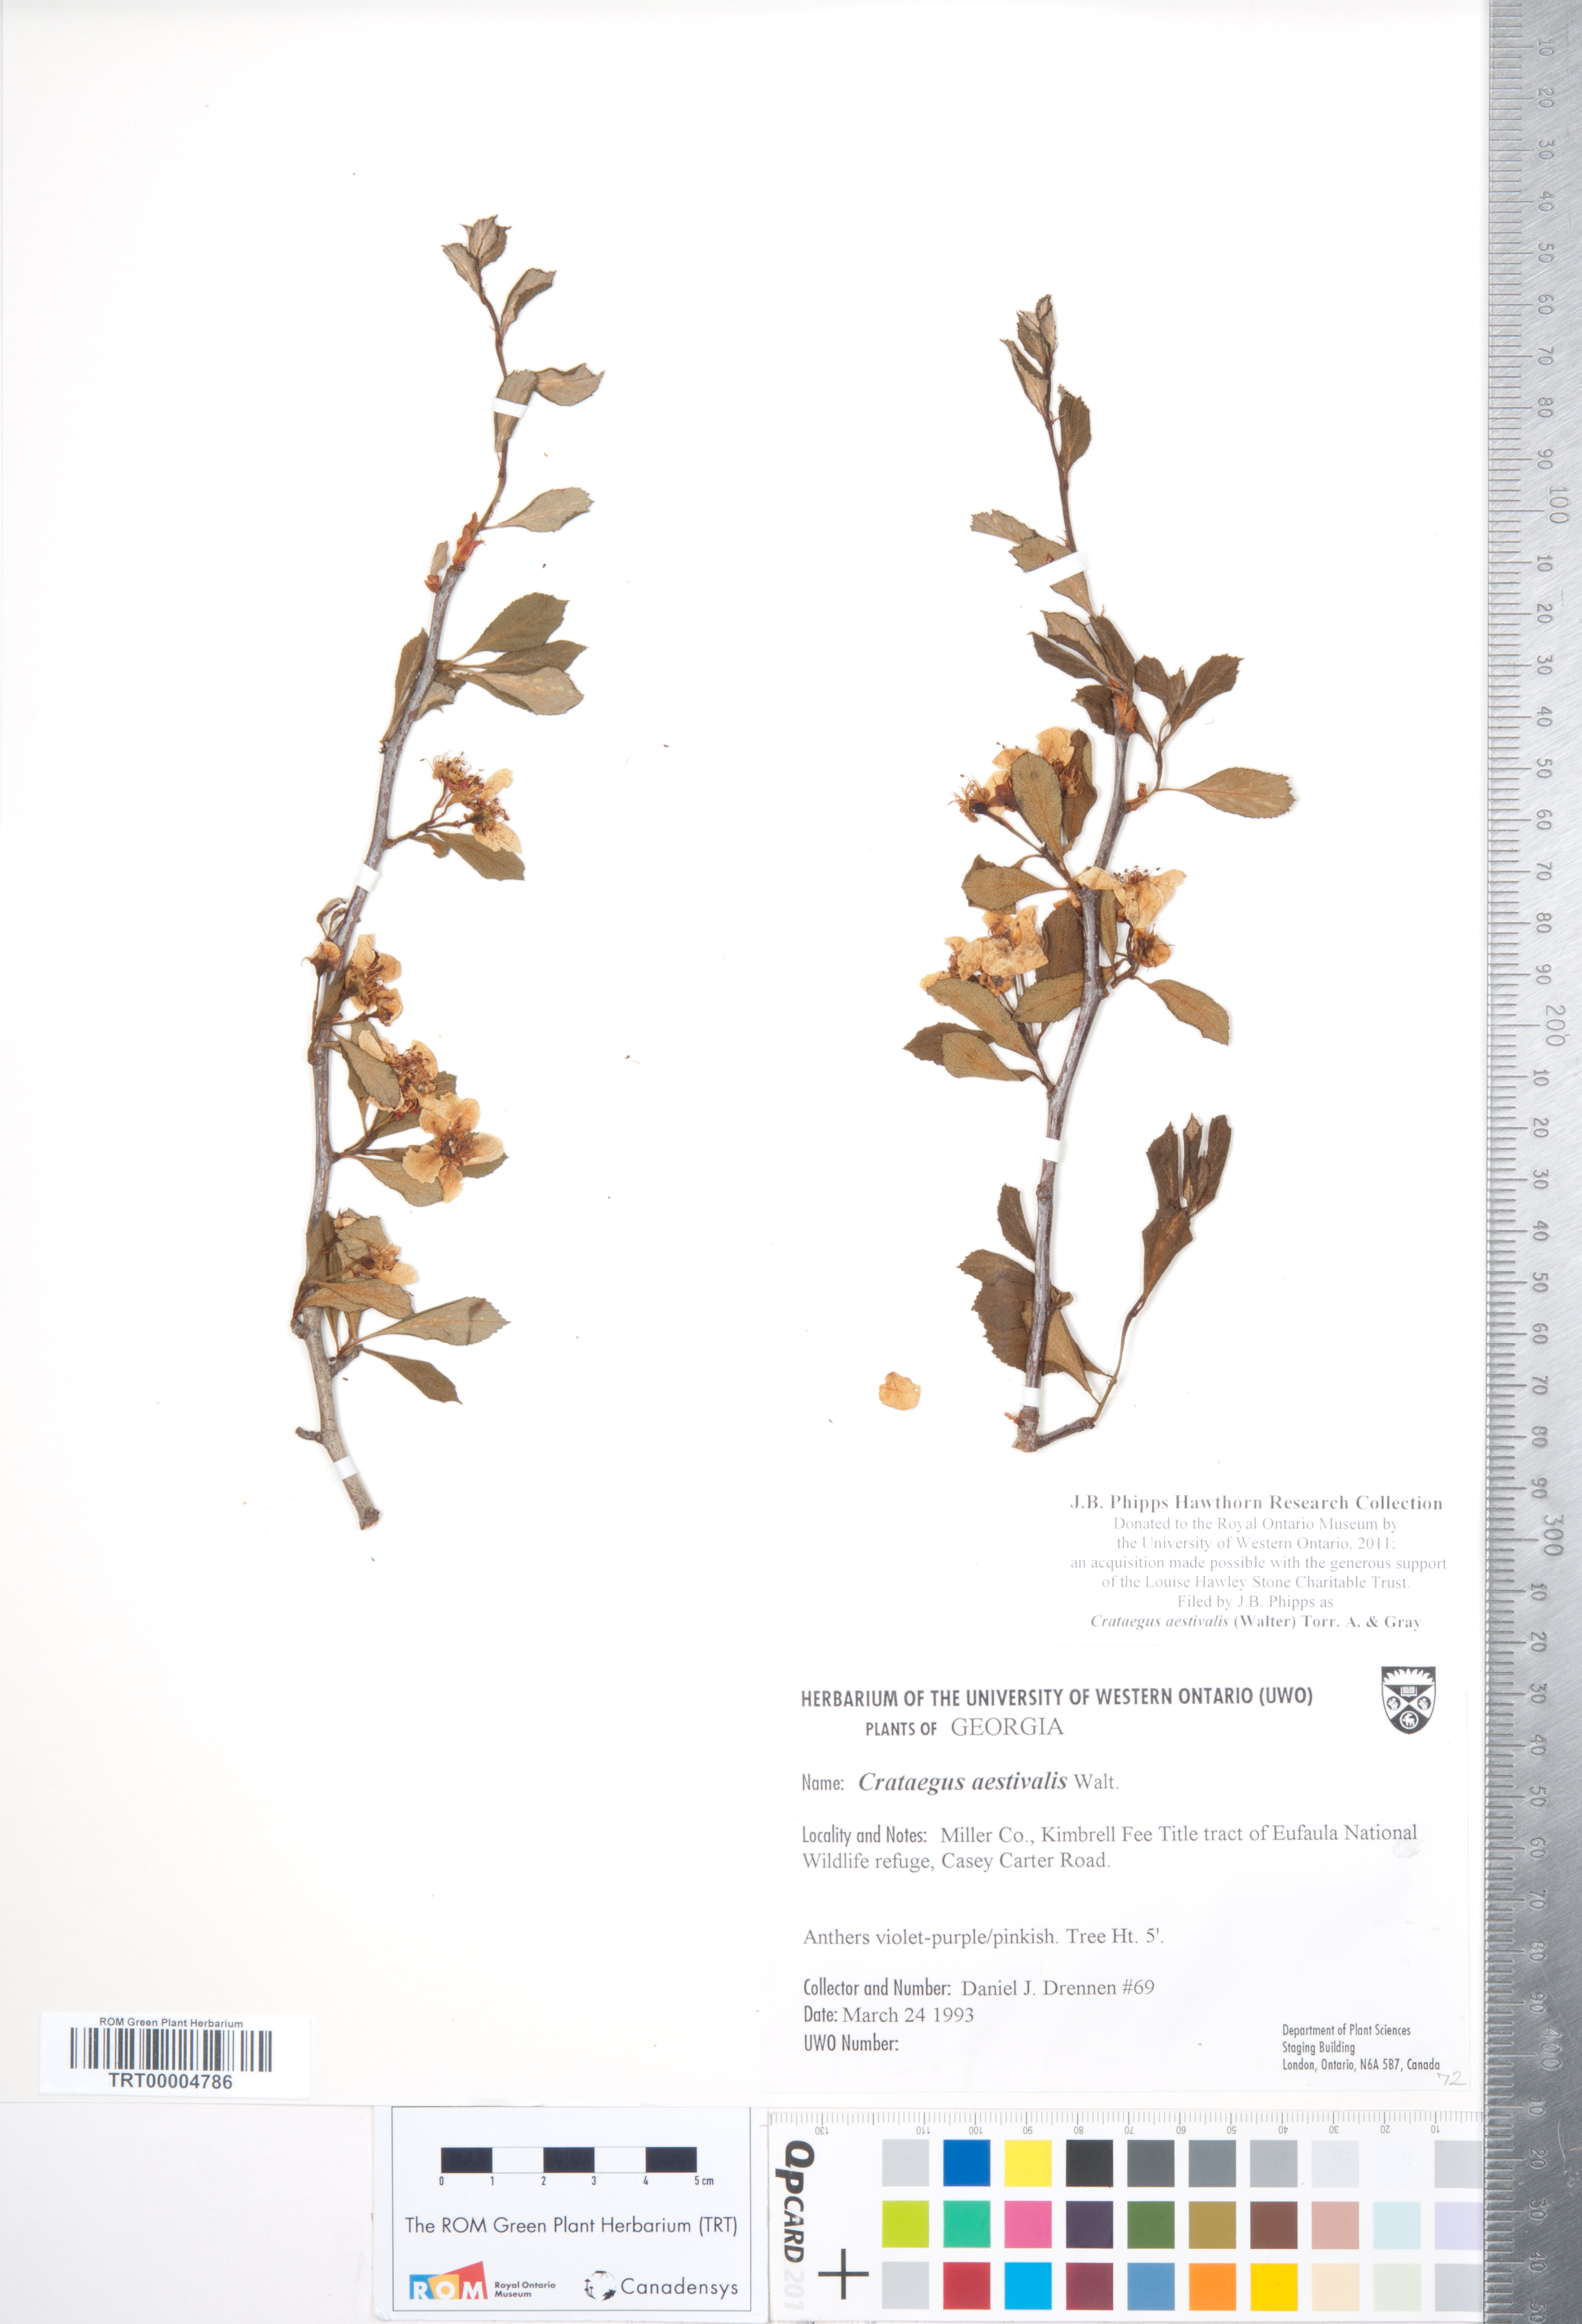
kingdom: Plantae
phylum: Tracheophyta
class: Magnoliopsida
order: Rosales
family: Rosaceae
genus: Crataegus
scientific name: Crataegus aestivalis
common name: Mayhaw
